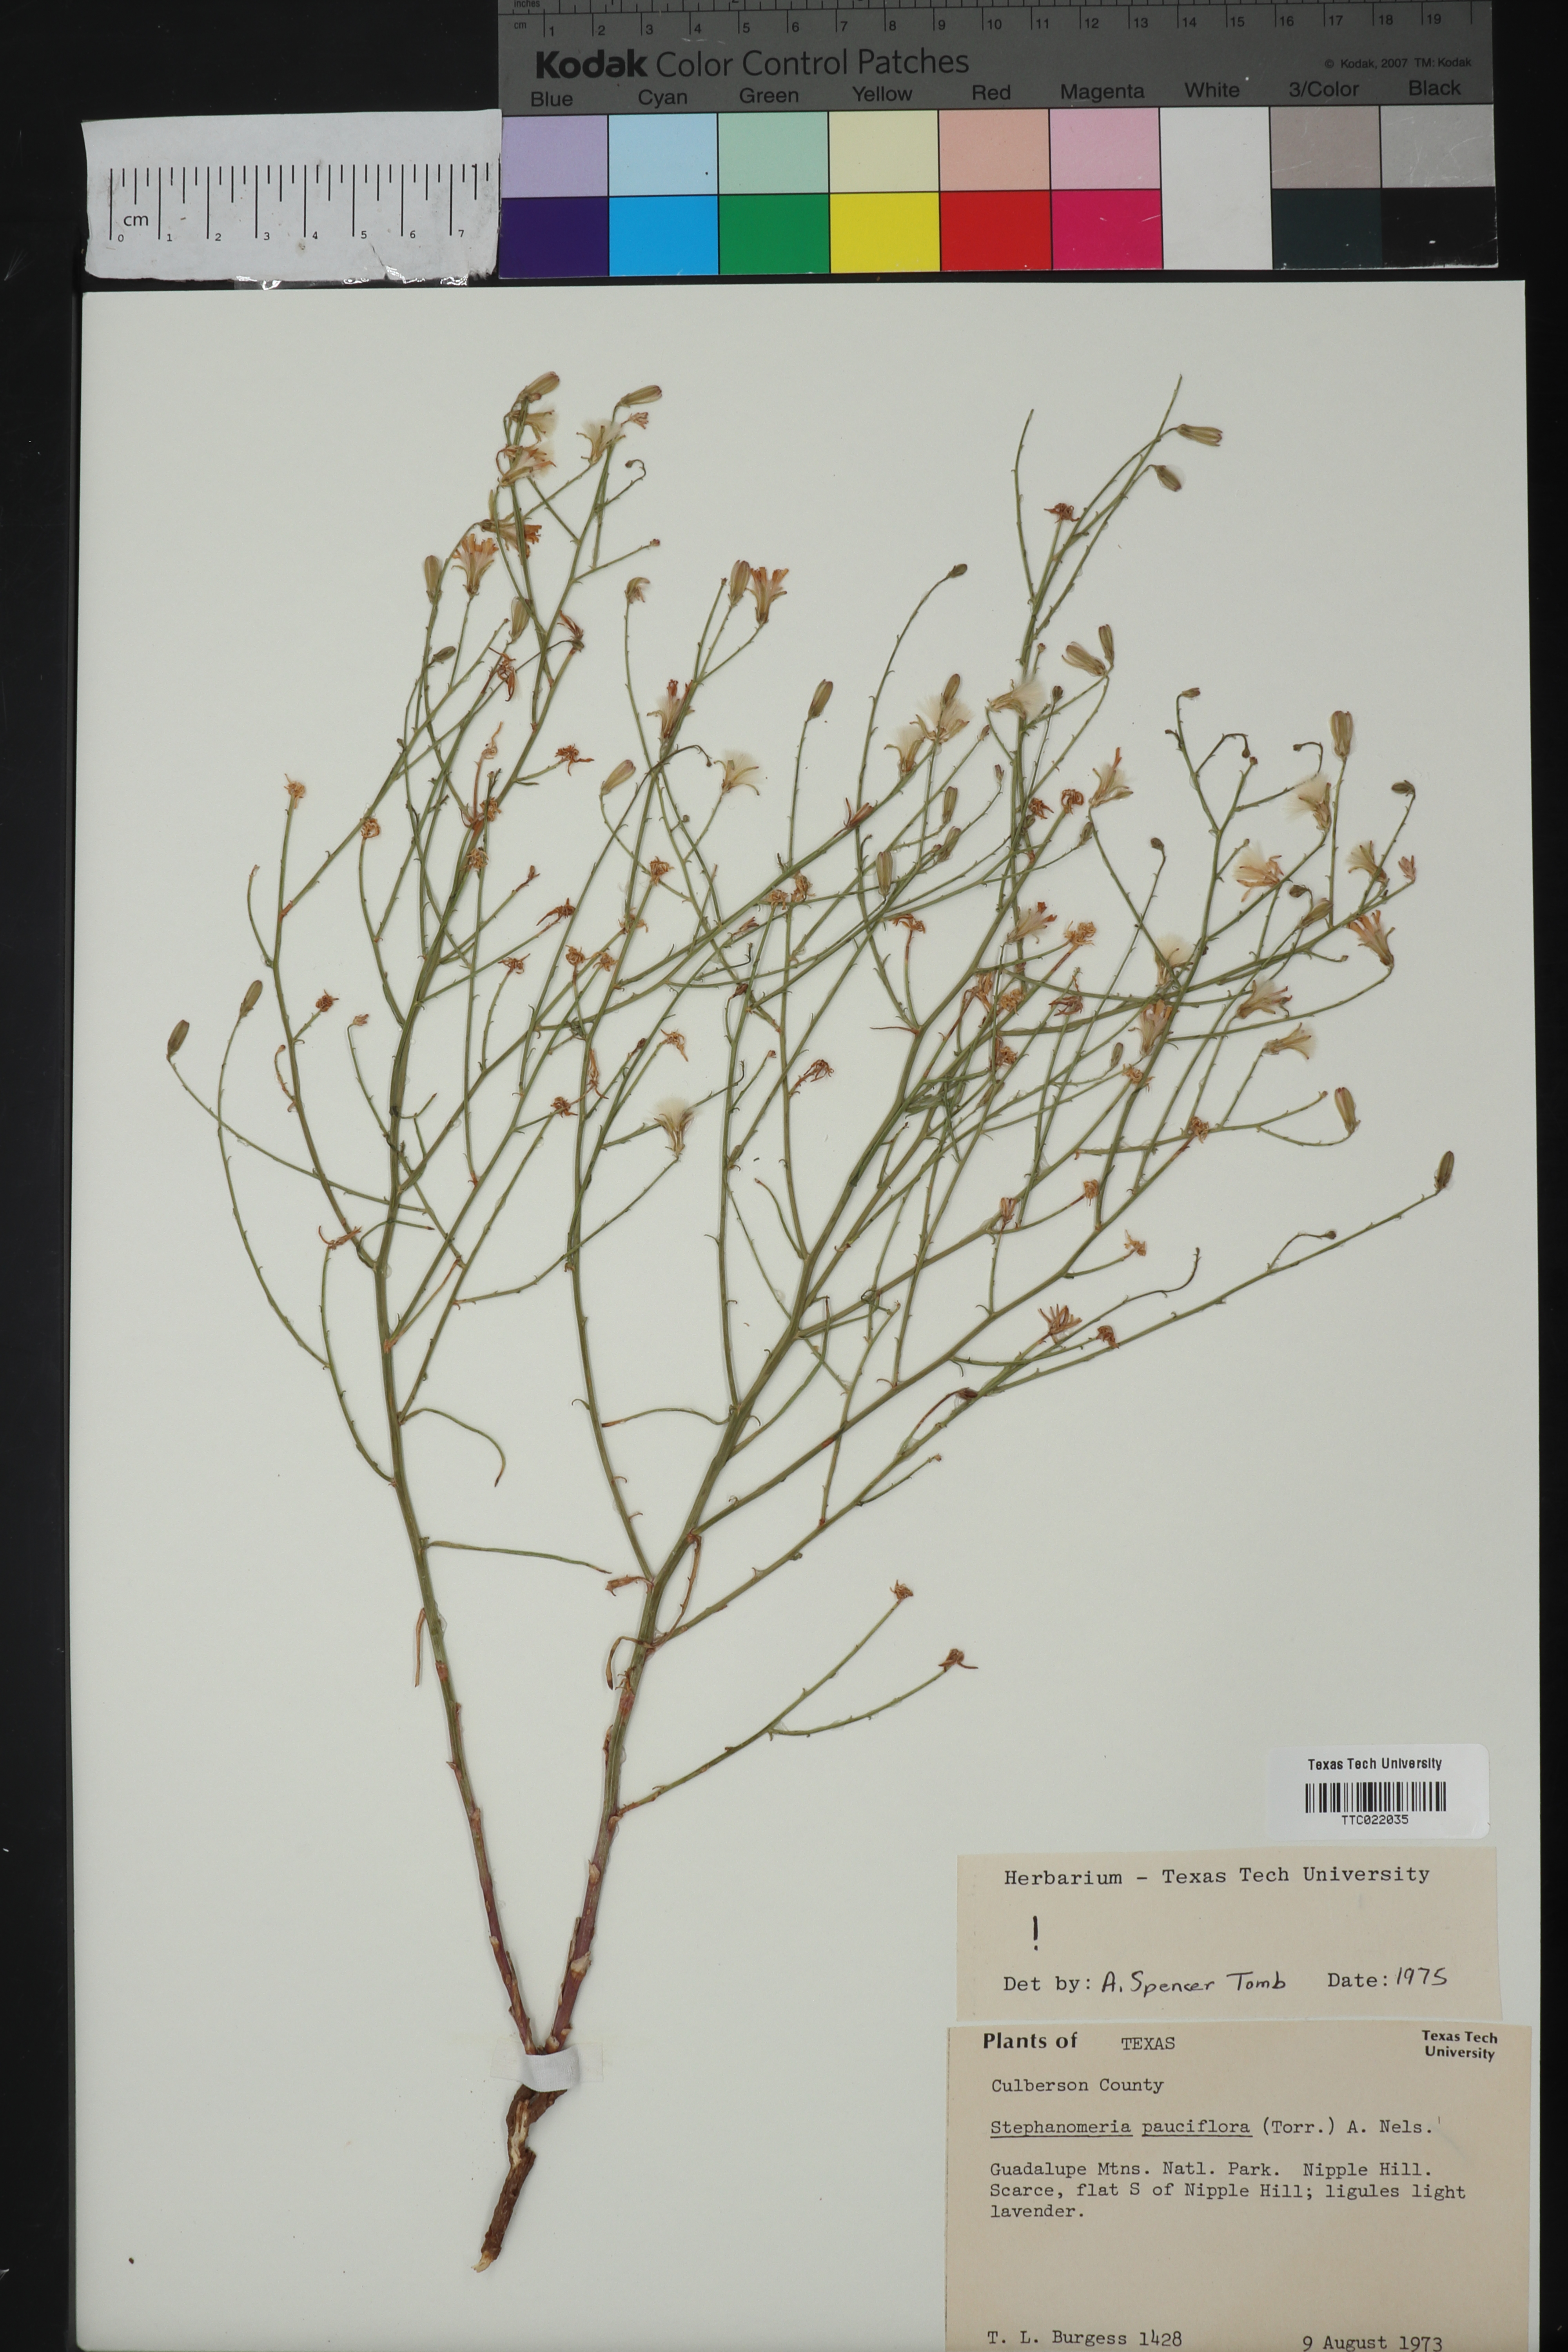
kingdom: Plantae
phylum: Tracheophyta
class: Magnoliopsida
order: Asterales
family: Asteraceae
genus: Stephanomeria
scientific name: Stephanomeria pauciflora
